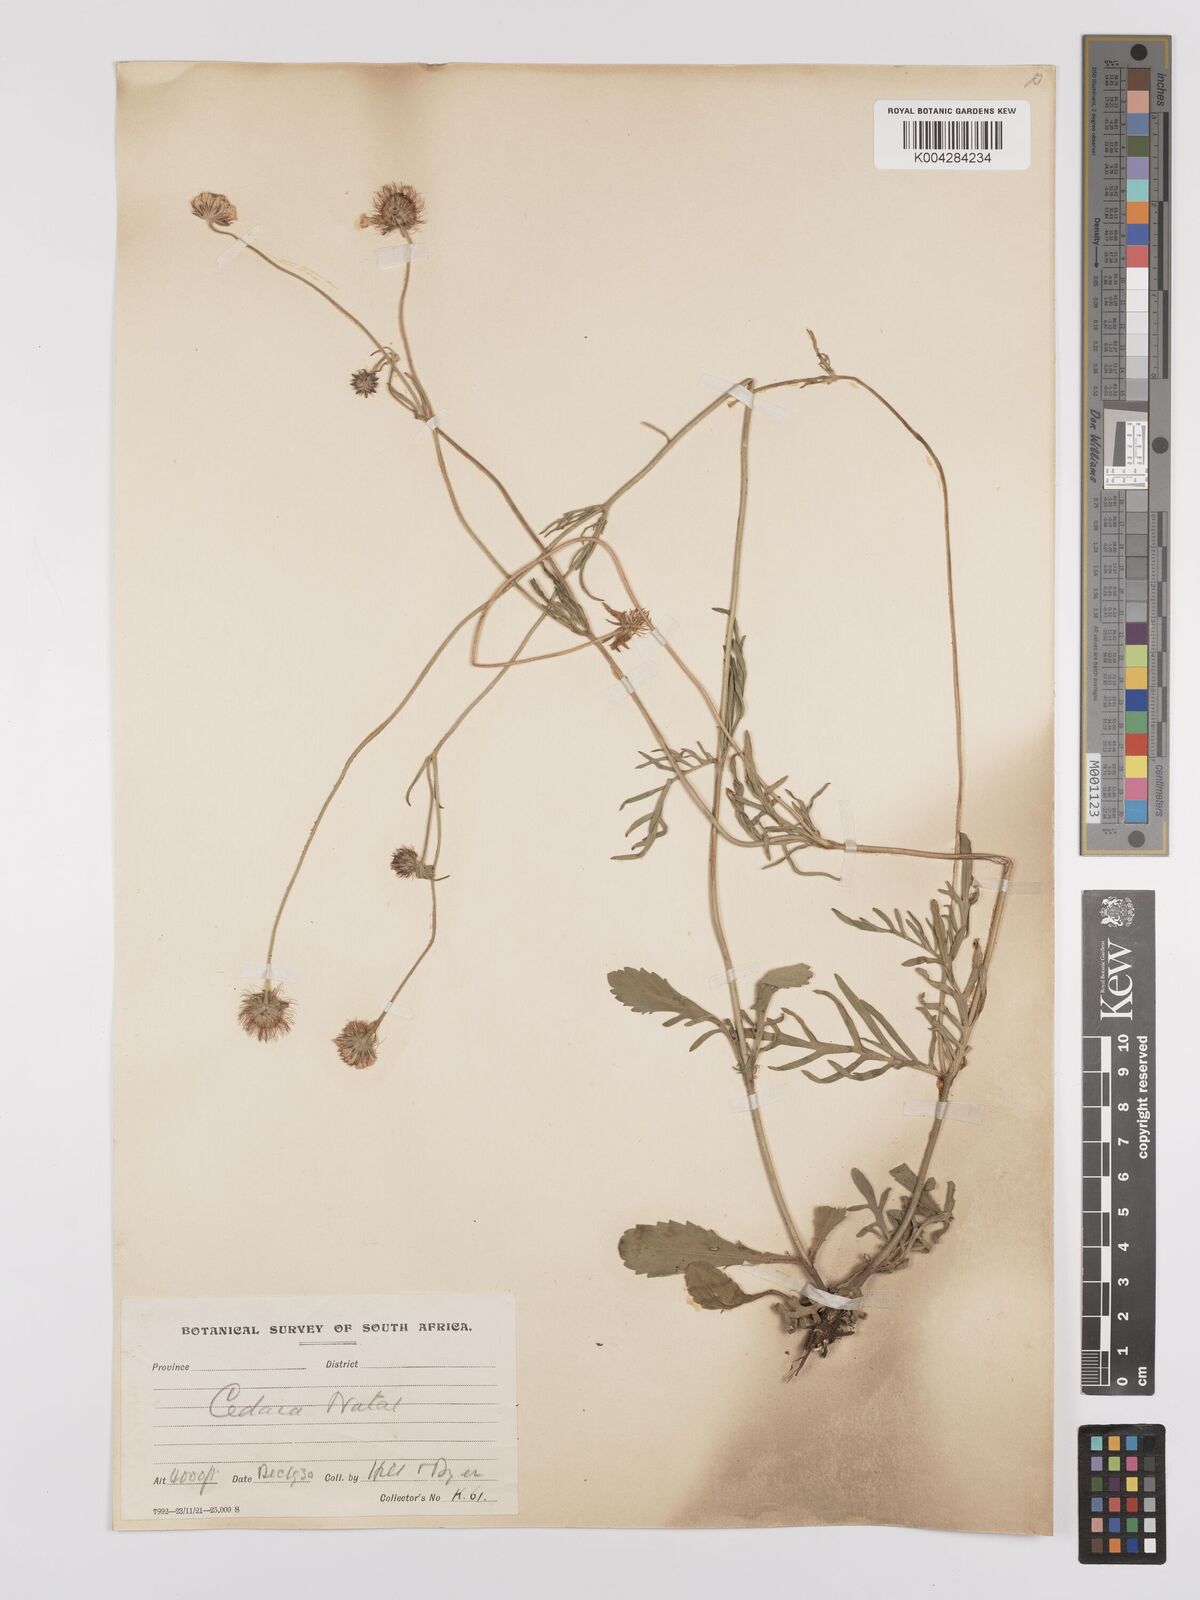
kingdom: Plantae
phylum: Tracheophyta
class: Magnoliopsida
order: Dipsacales
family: Caprifoliaceae
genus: Scabiosa
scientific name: Scabiosa columbaria
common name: Small scabious
